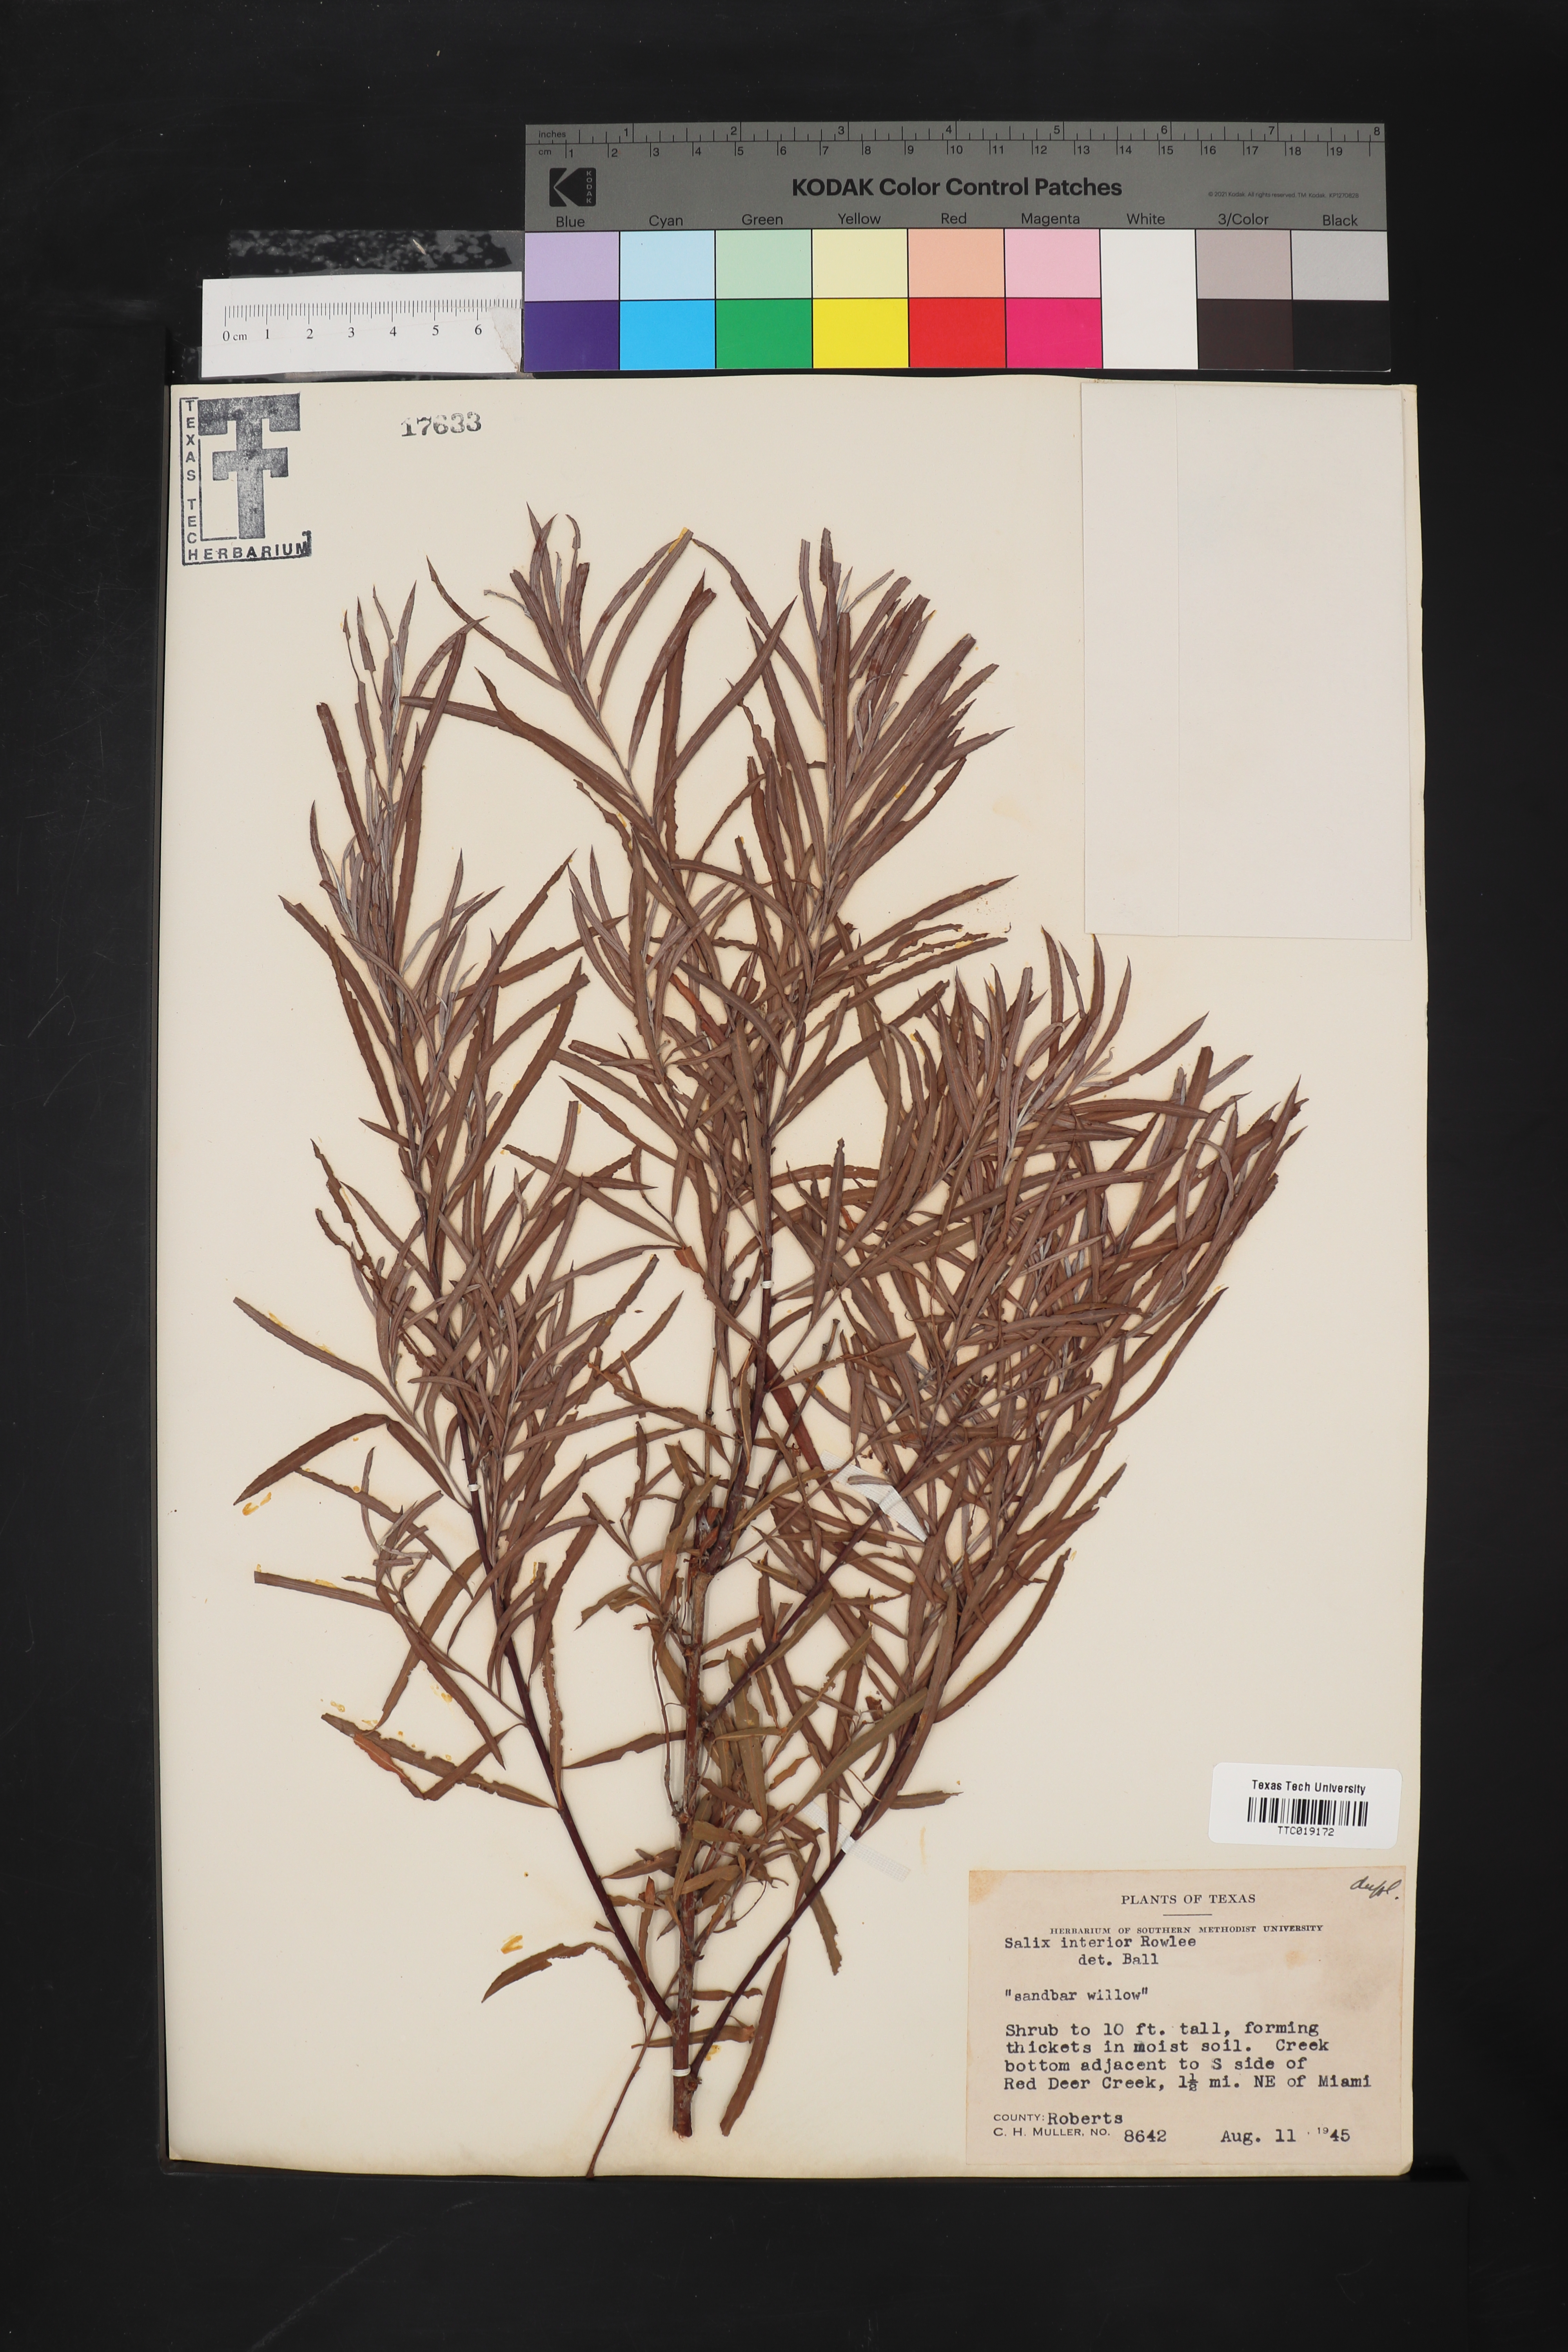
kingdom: Plantae
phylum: Tracheophyta
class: Magnoliopsida
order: Malpighiales
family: Salicaceae
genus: Salix
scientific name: Salix interior
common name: Sandbar willow
